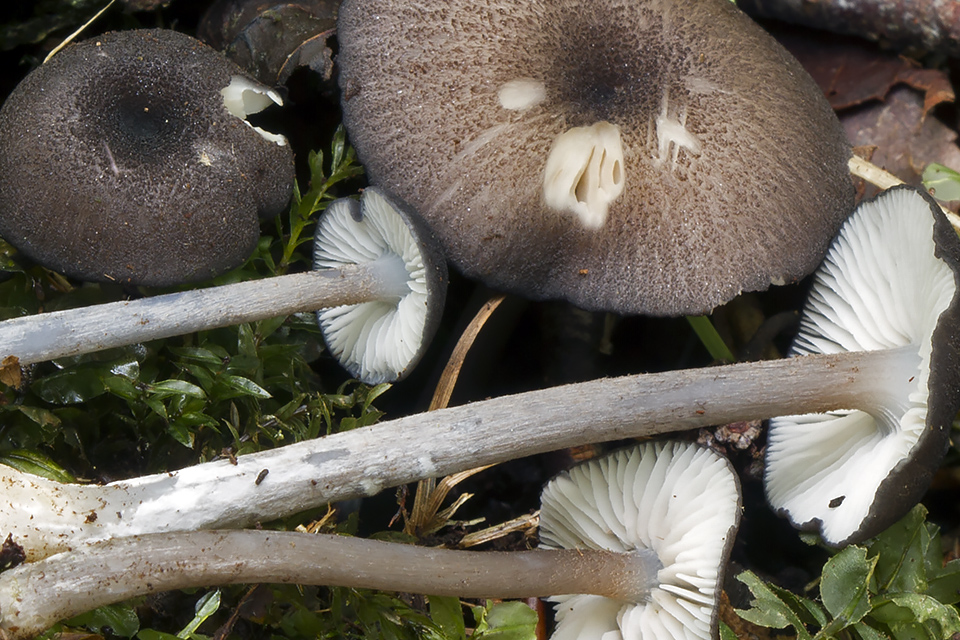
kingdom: Fungi
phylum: Basidiomycota
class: Agaricomycetes
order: Agaricales
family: Entolomataceae
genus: Entoloma
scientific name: Entoloma nordlandicum
